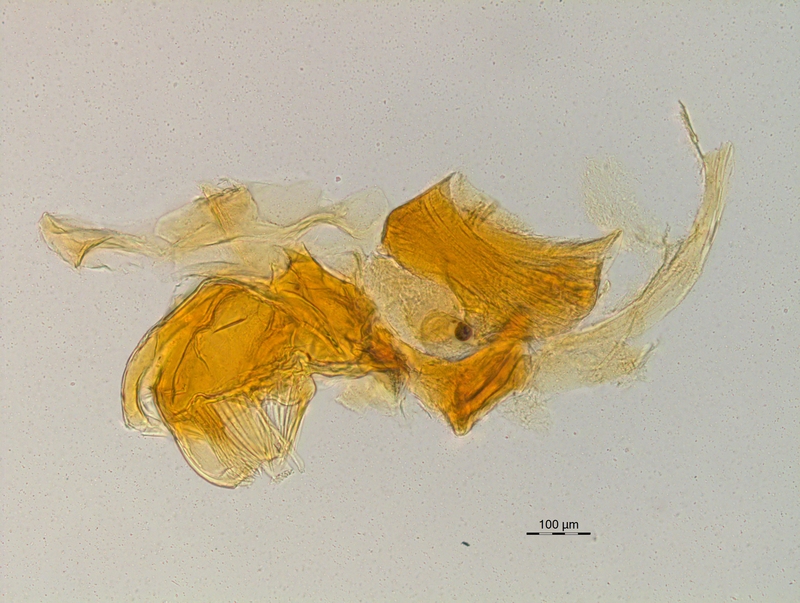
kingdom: Animalia
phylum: Arthropoda
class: Diplopoda
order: Chordeumatida
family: Craspedosomatidae
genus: Craspedosoma
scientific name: Craspedosoma rawlinsii
